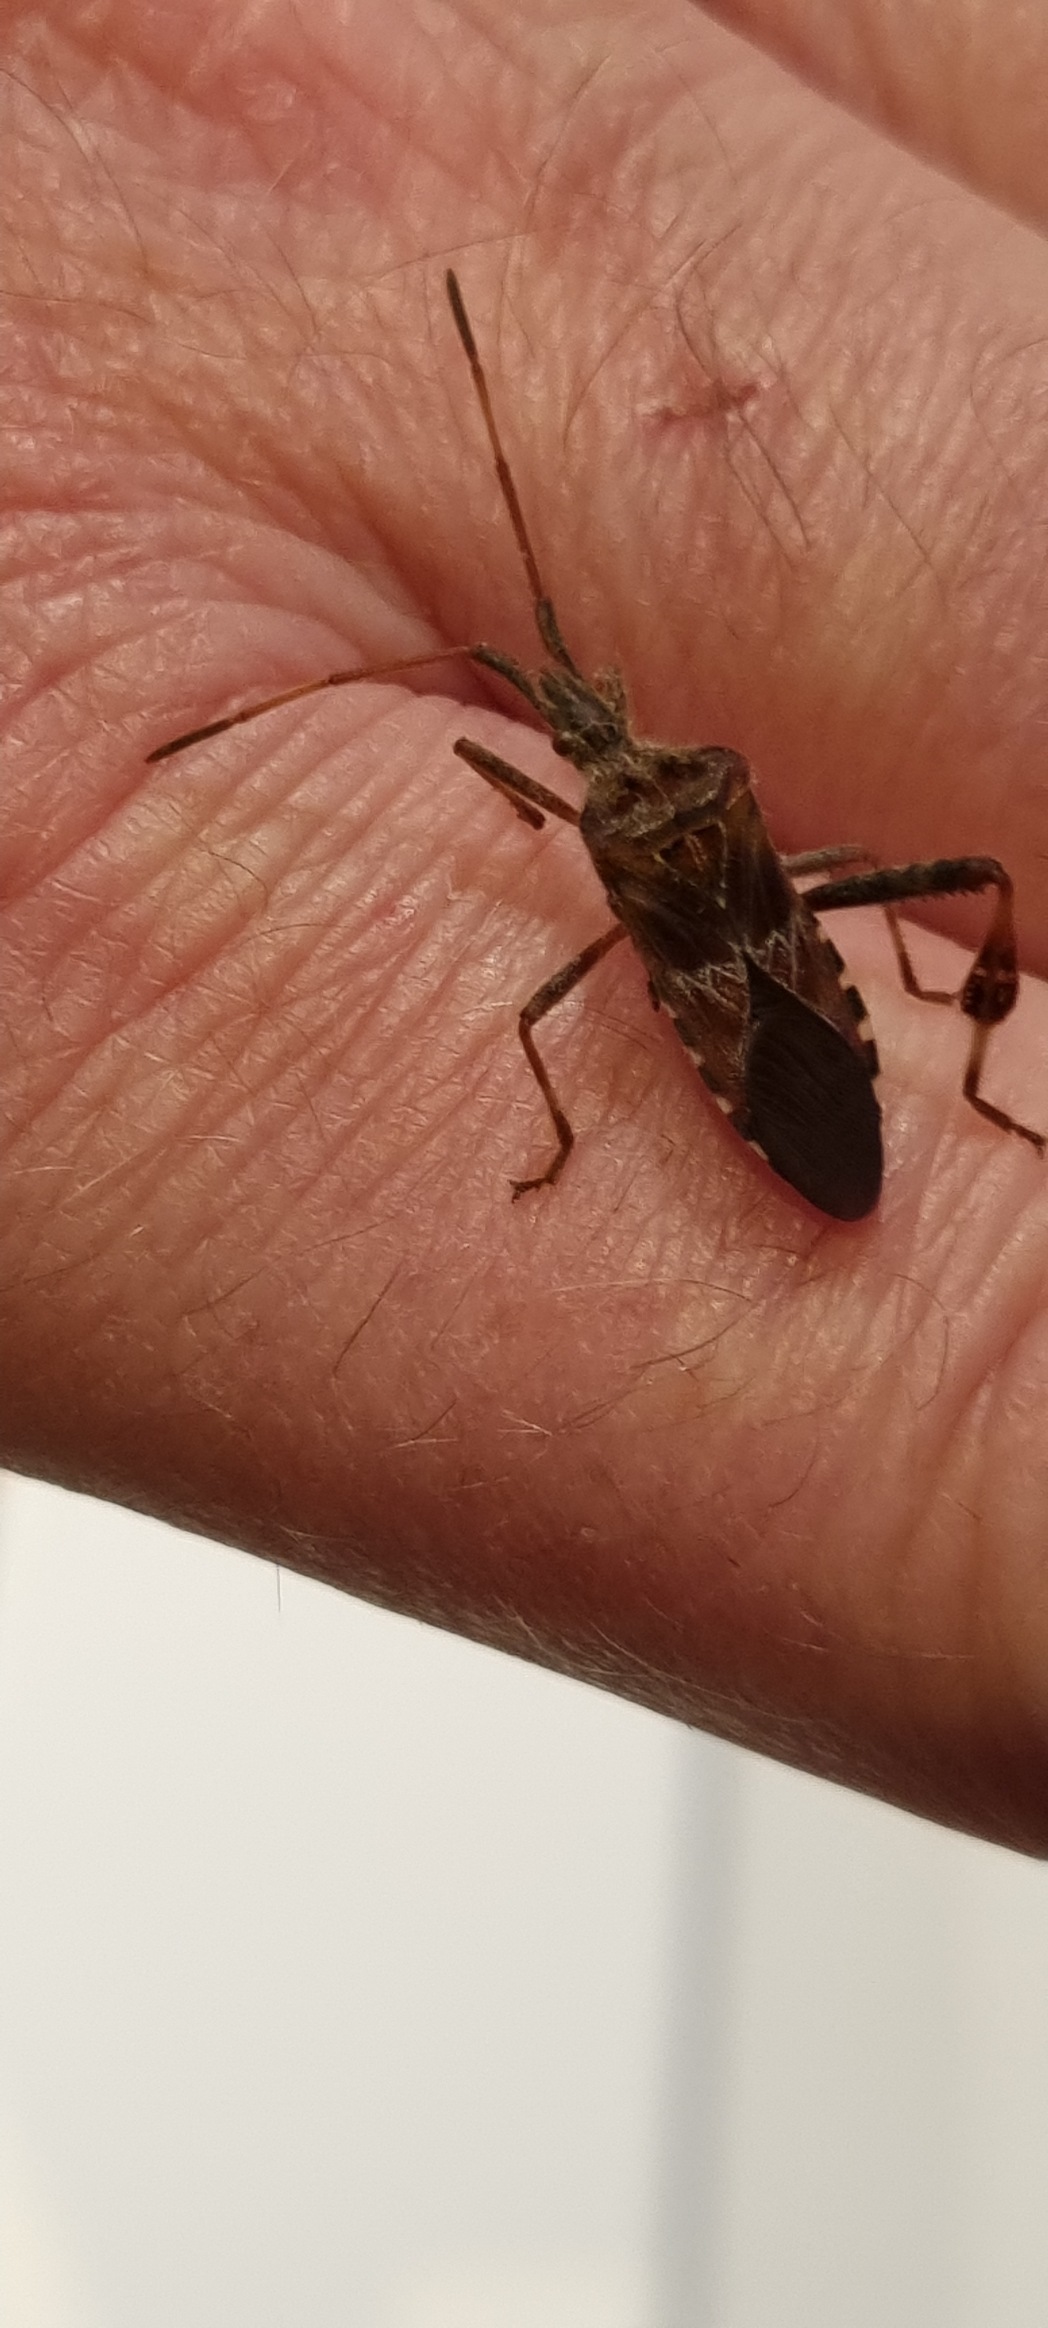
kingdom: Animalia
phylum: Arthropoda
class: Insecta
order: Hemiptera
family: Coreidae
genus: Leptoglossus
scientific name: Leptoglossus occidentalis
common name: Amerikansk fyrretæge
